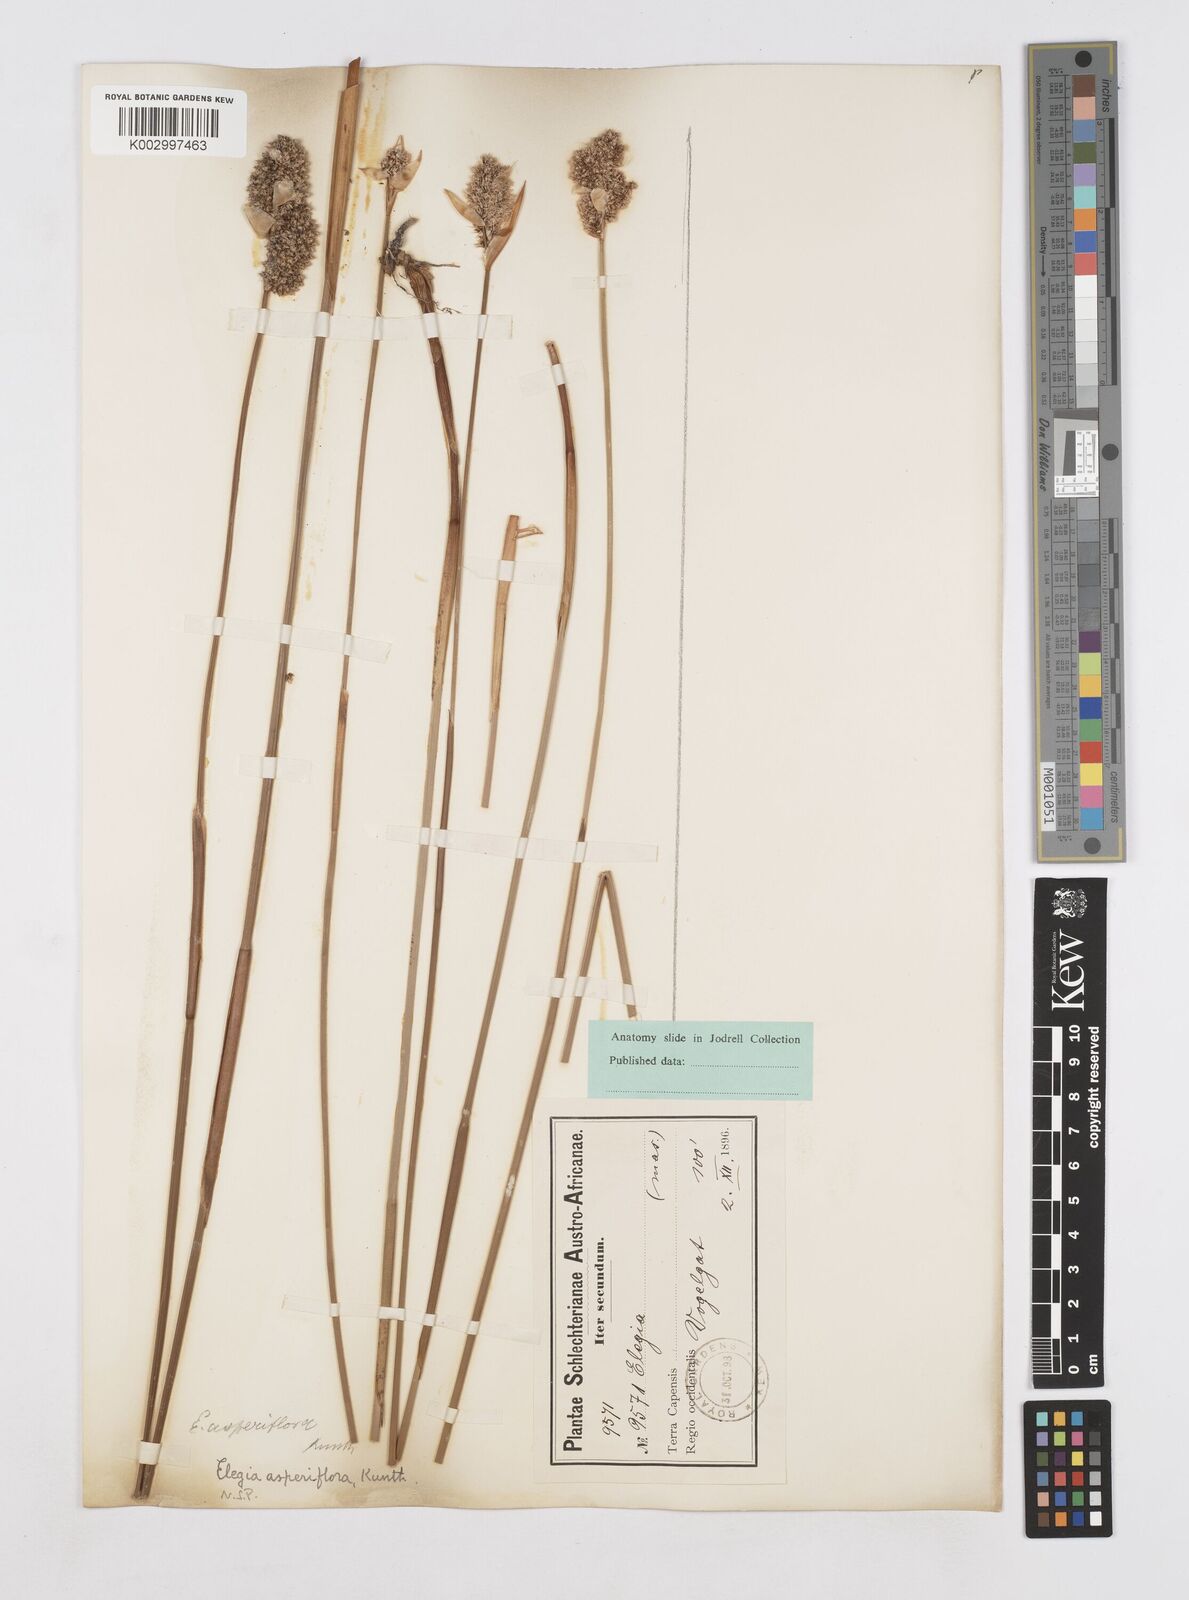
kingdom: Plantae
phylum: Tracheophyta
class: Liliopsida
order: Poales
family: Restionaceae
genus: Elegia
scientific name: Elegia asperiflora
